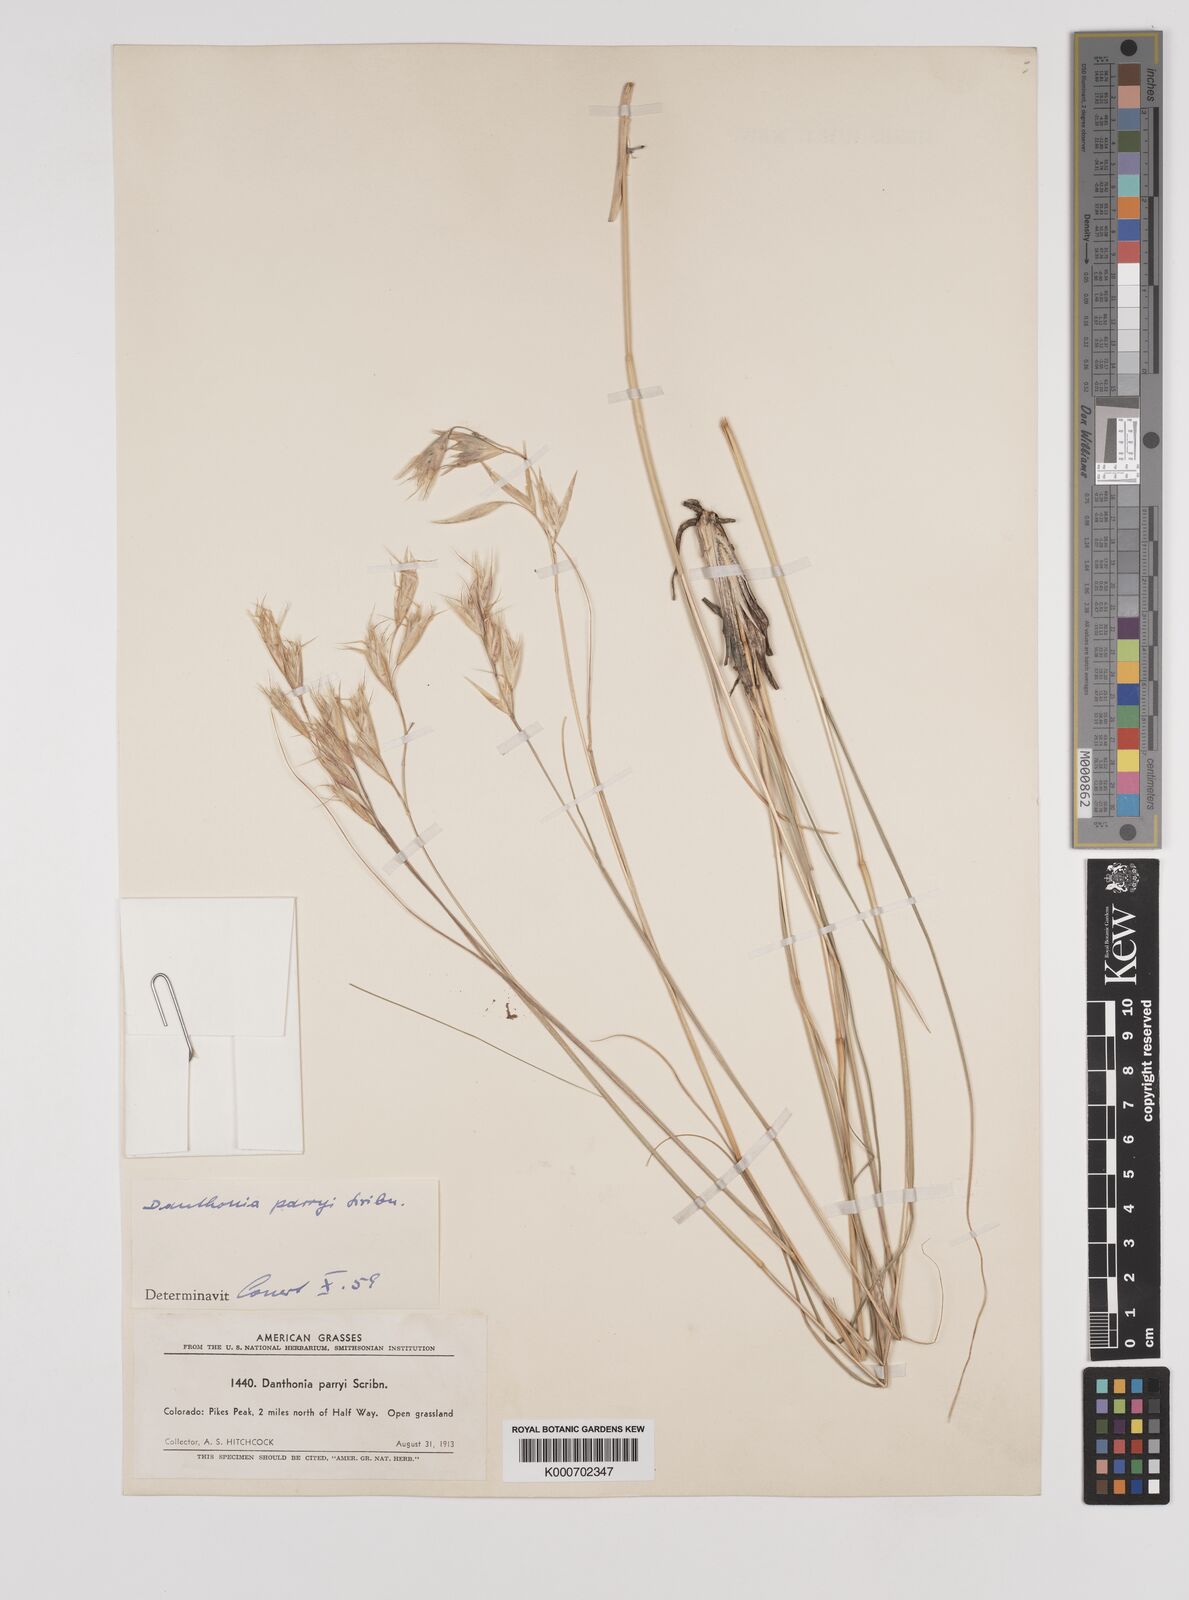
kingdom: Plantae
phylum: Tracheophyta
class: Liliopsida
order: Poales
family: Poaceae
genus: Danthonia
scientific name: Danthonia parryi
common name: Parry's oat grass
